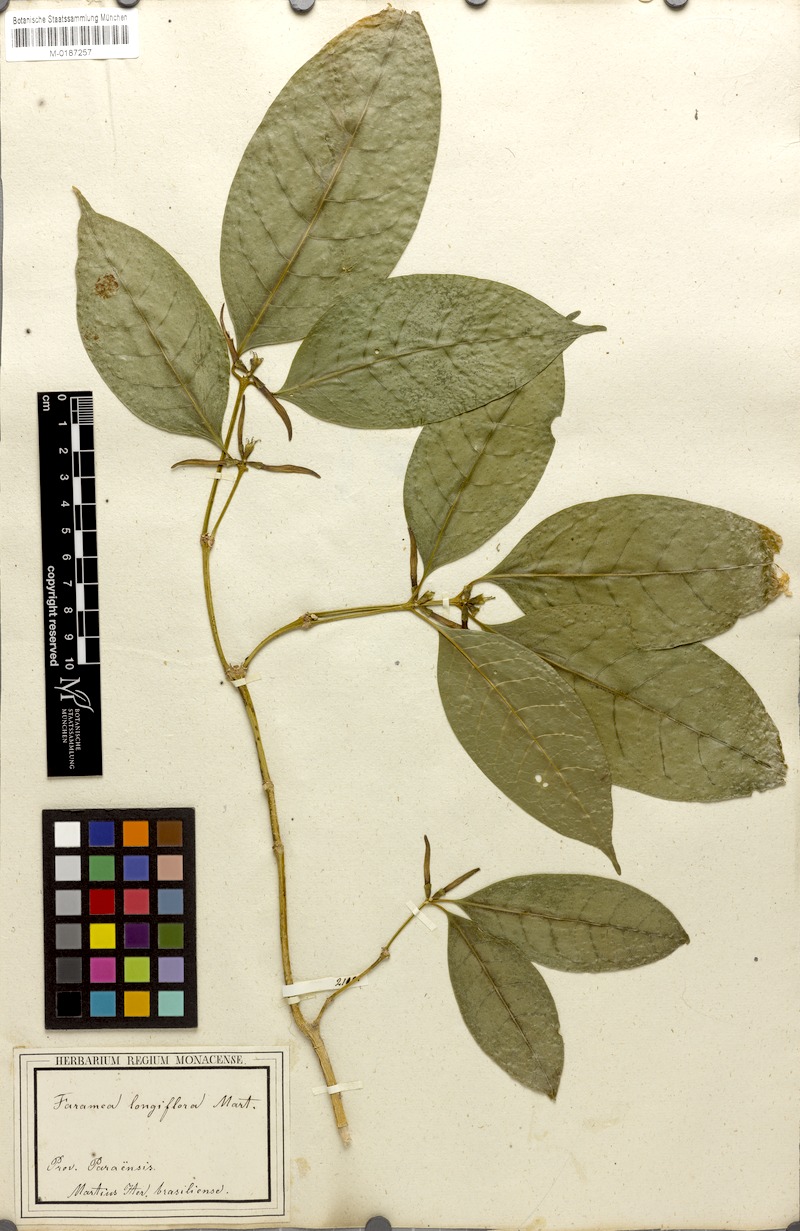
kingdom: Plantae
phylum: Tracheophyta
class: Magnoliopsida
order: Gentianales
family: Rubiaceae
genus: Coussarea
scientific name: Coussarea longiflora
